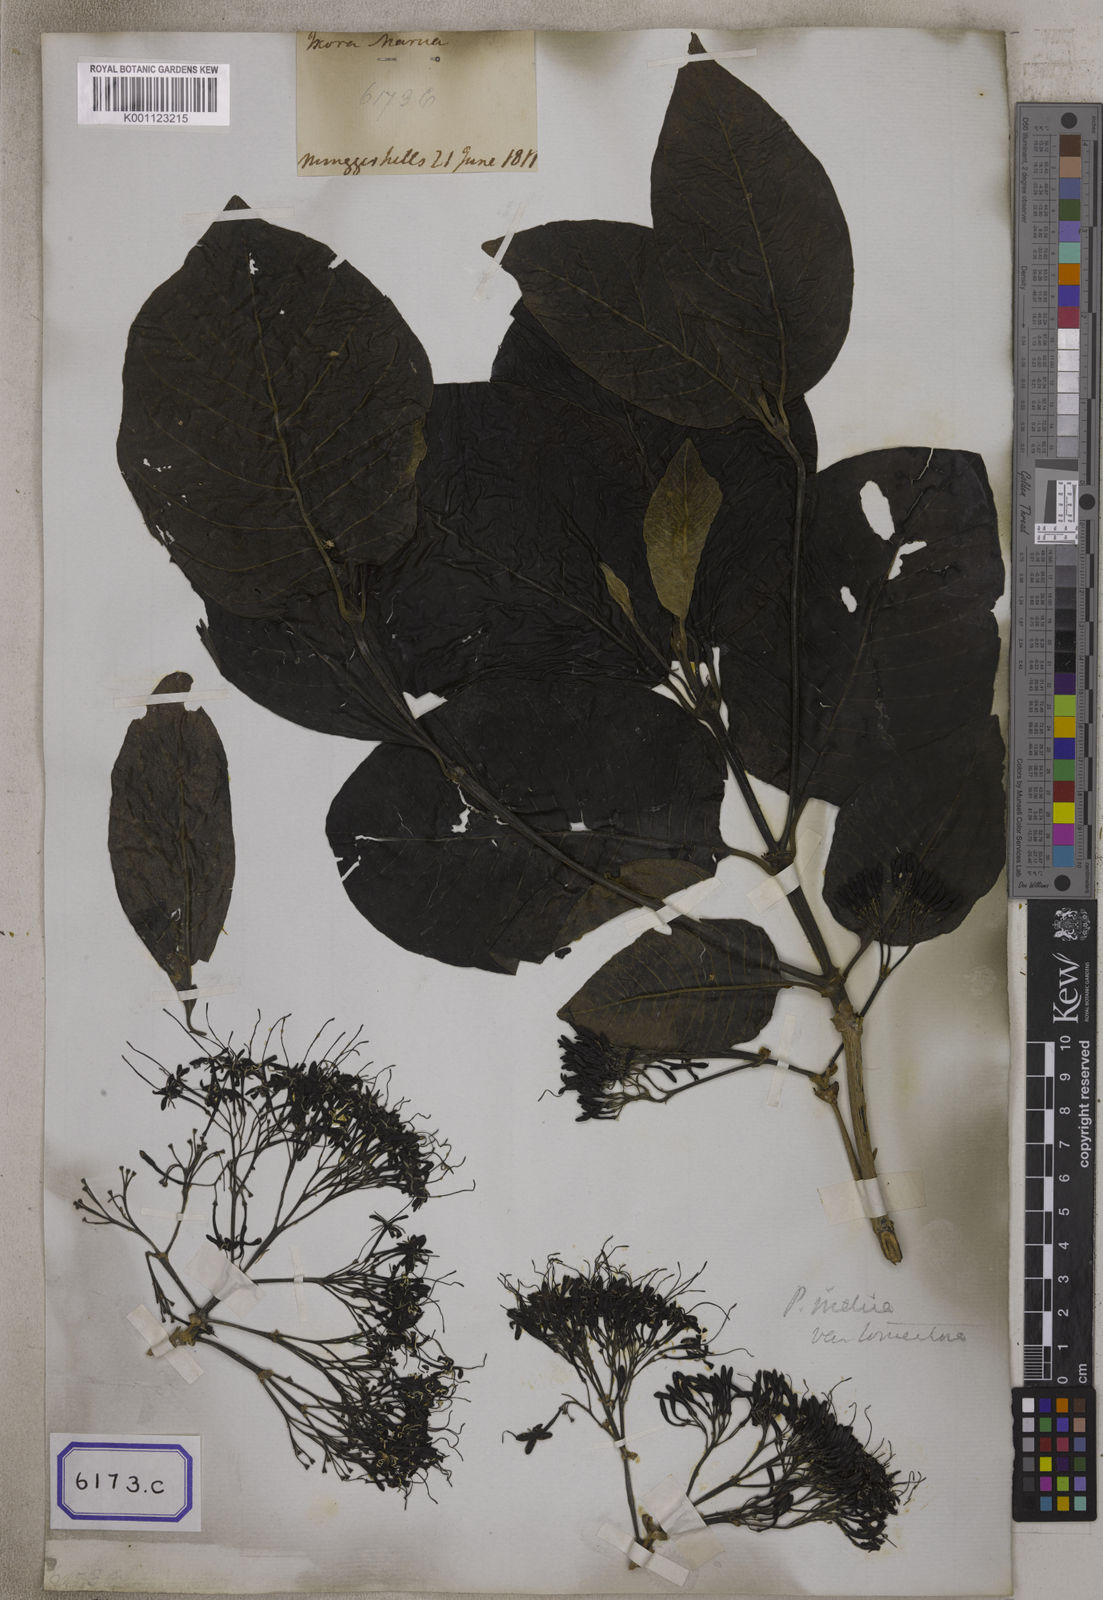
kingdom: Plantae
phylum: Tracheophyta
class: Magnoliopsida
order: Gentianales
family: Rubiaceae
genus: Pavetta
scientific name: Pavetta tomentosa
